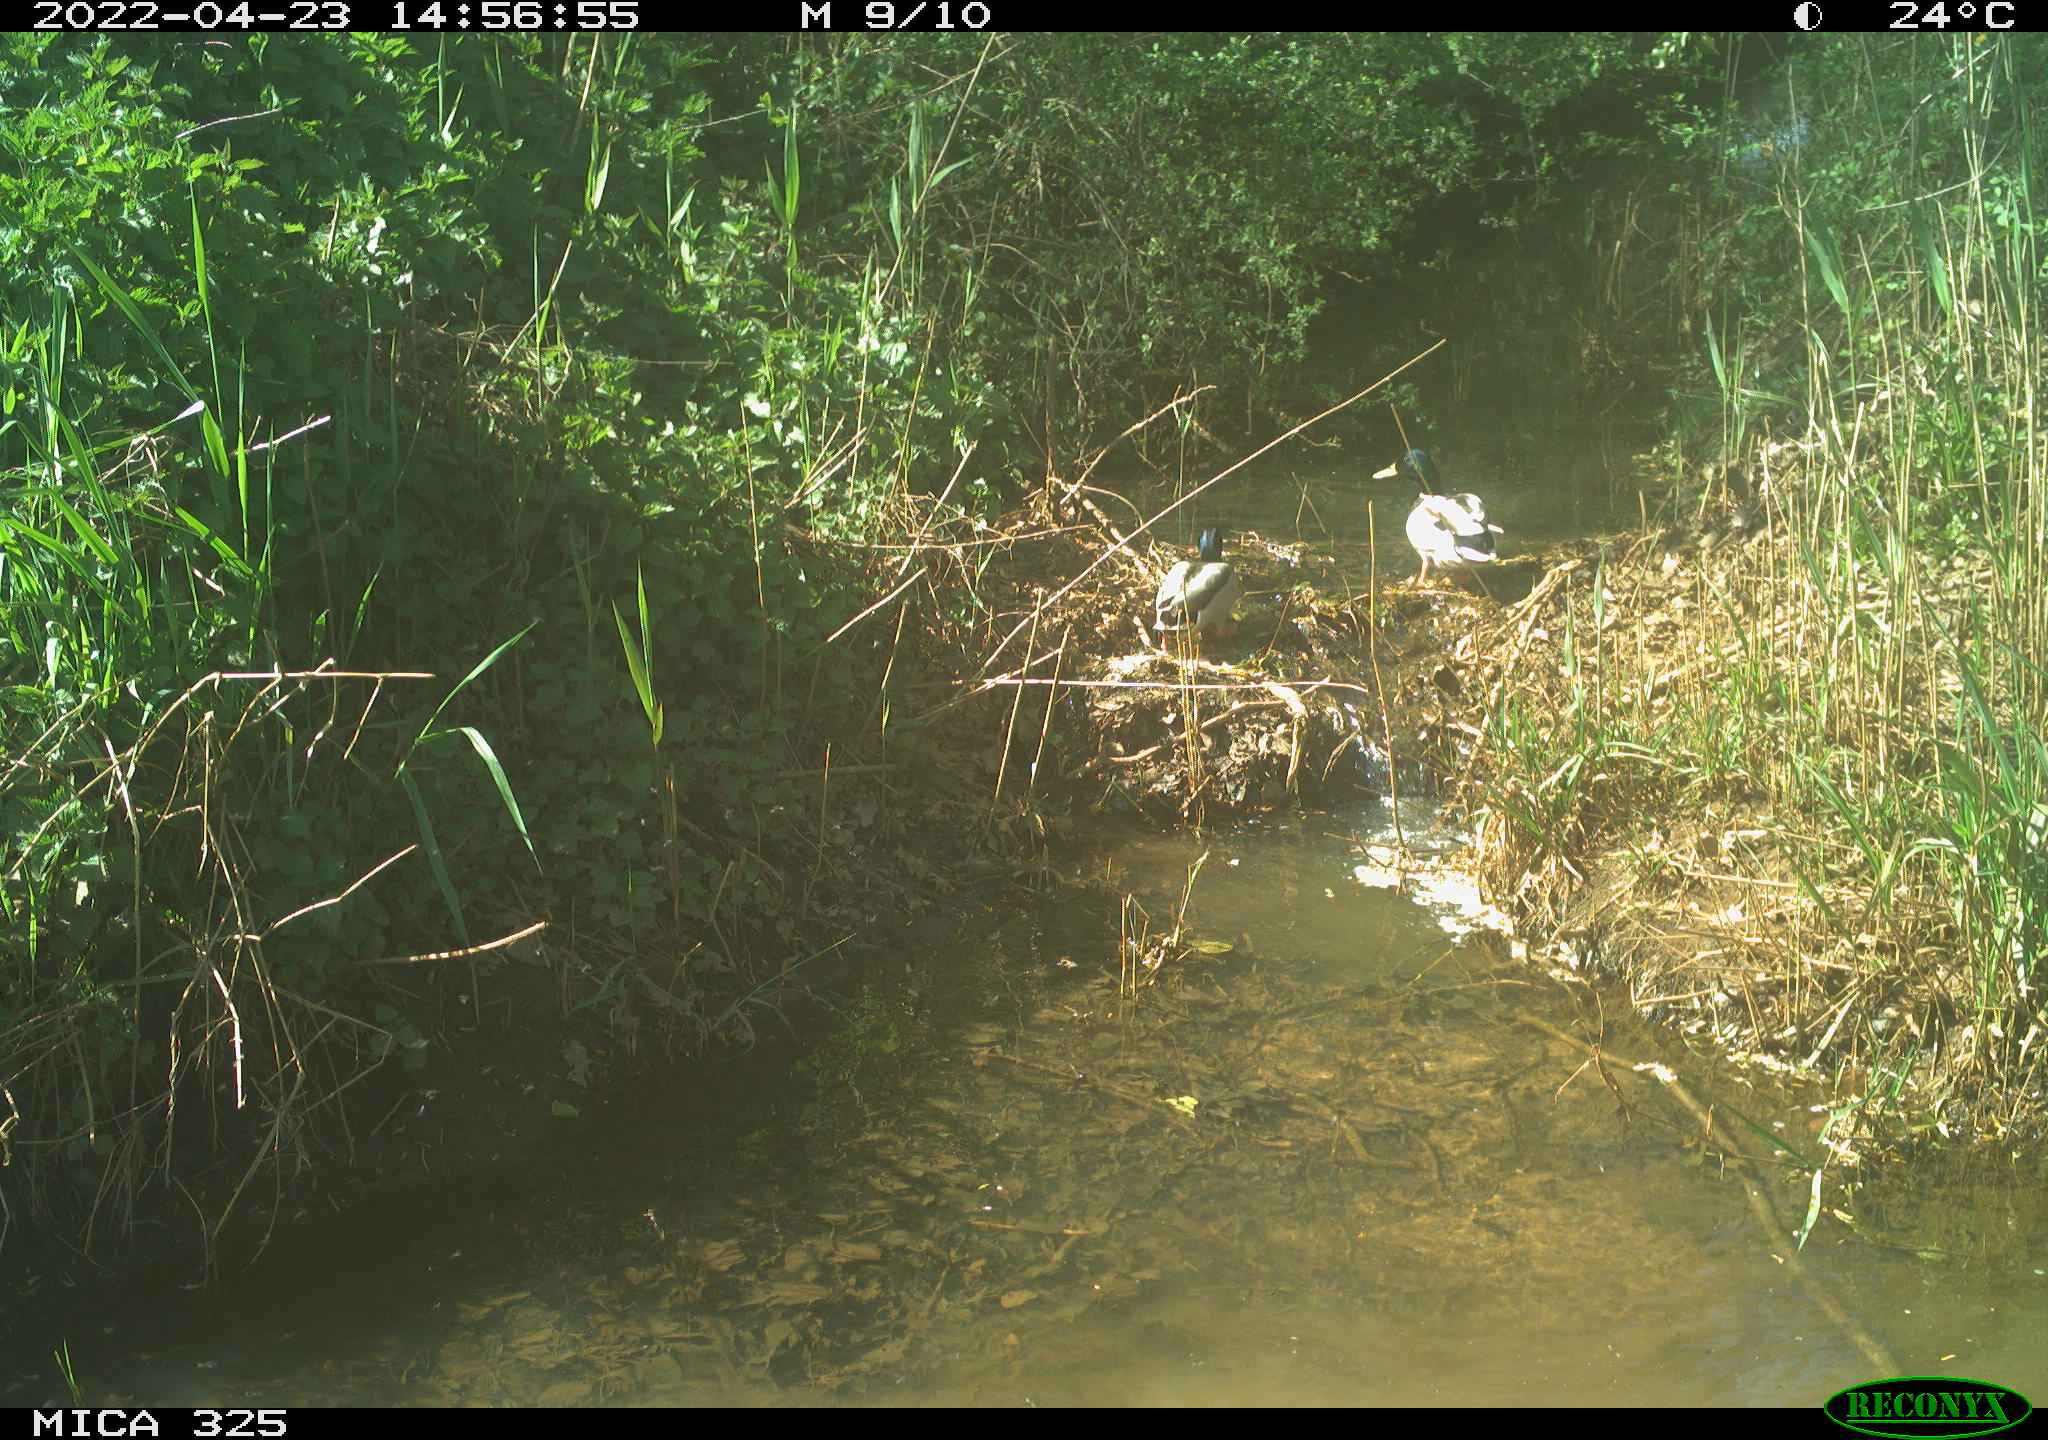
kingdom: Animalia
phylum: Chordata
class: Aves
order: Anseriformes
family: Anatidae
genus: Anas
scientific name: Anas platyrhynchos
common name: Mallard
